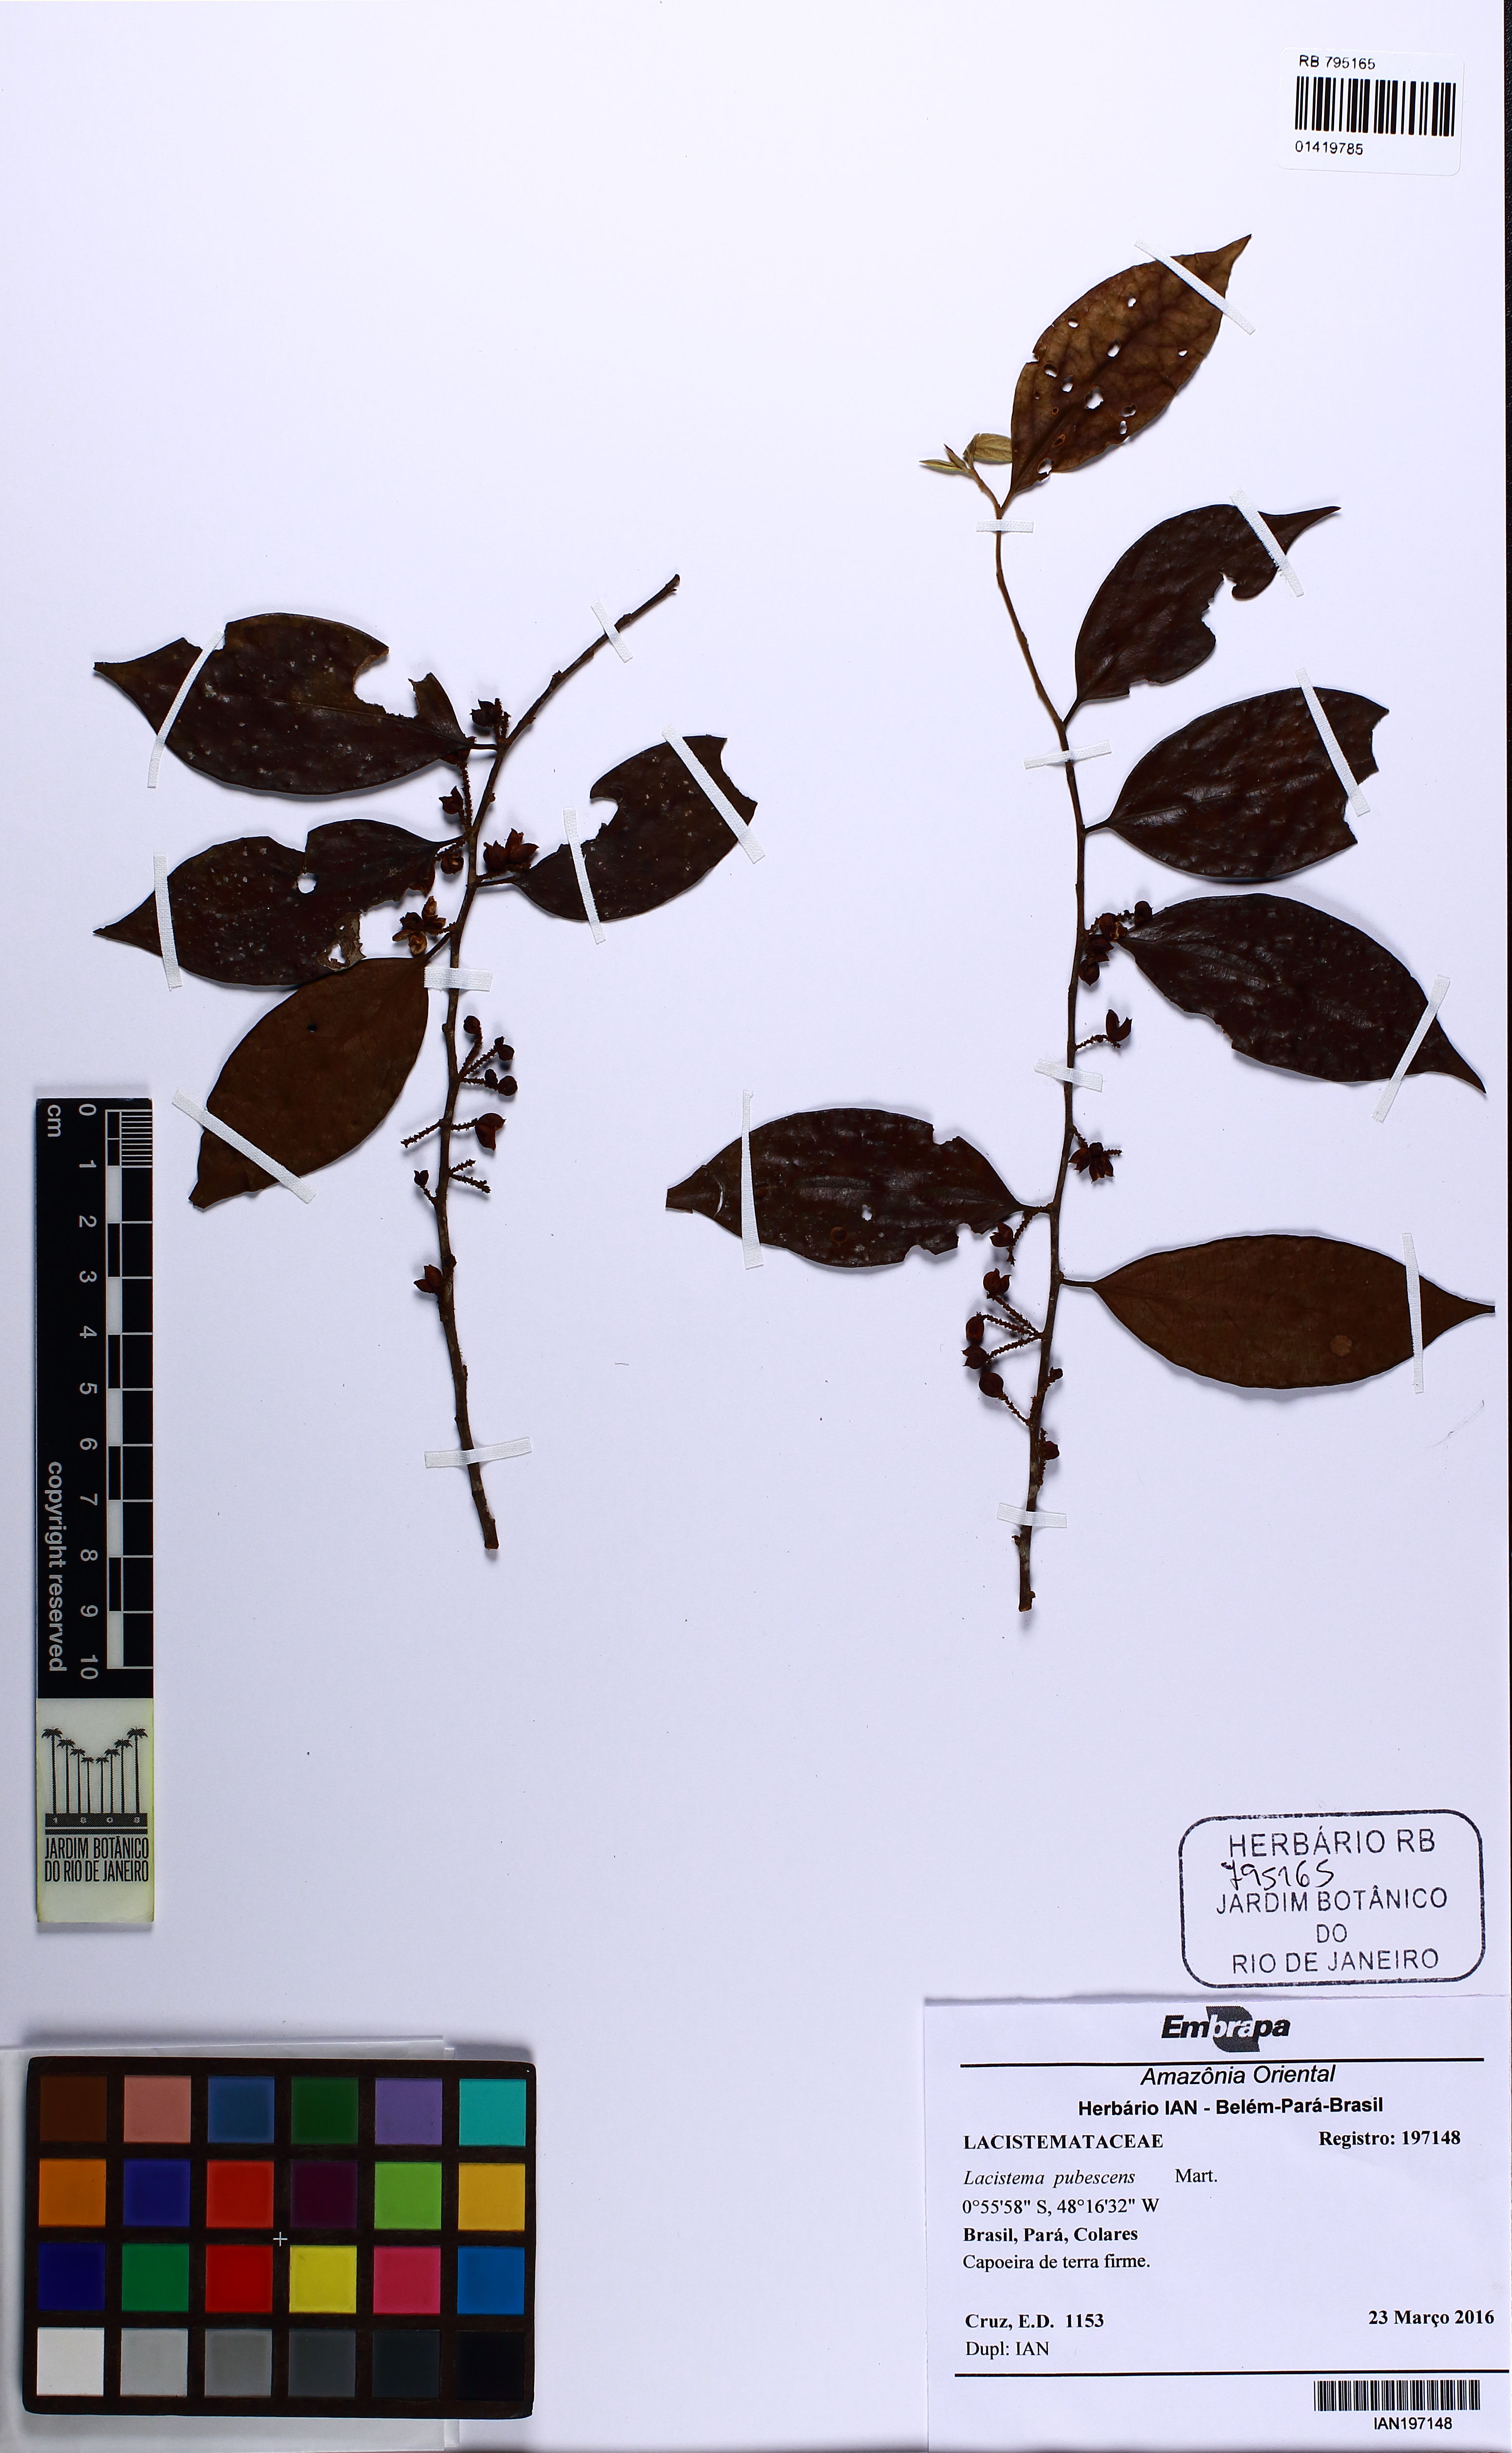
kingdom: Plantae
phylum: Tracheophyta
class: Magnoliopsida
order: Malpighiales
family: Lacistemataceae
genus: Lacistema
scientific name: Lacistema pubescens
